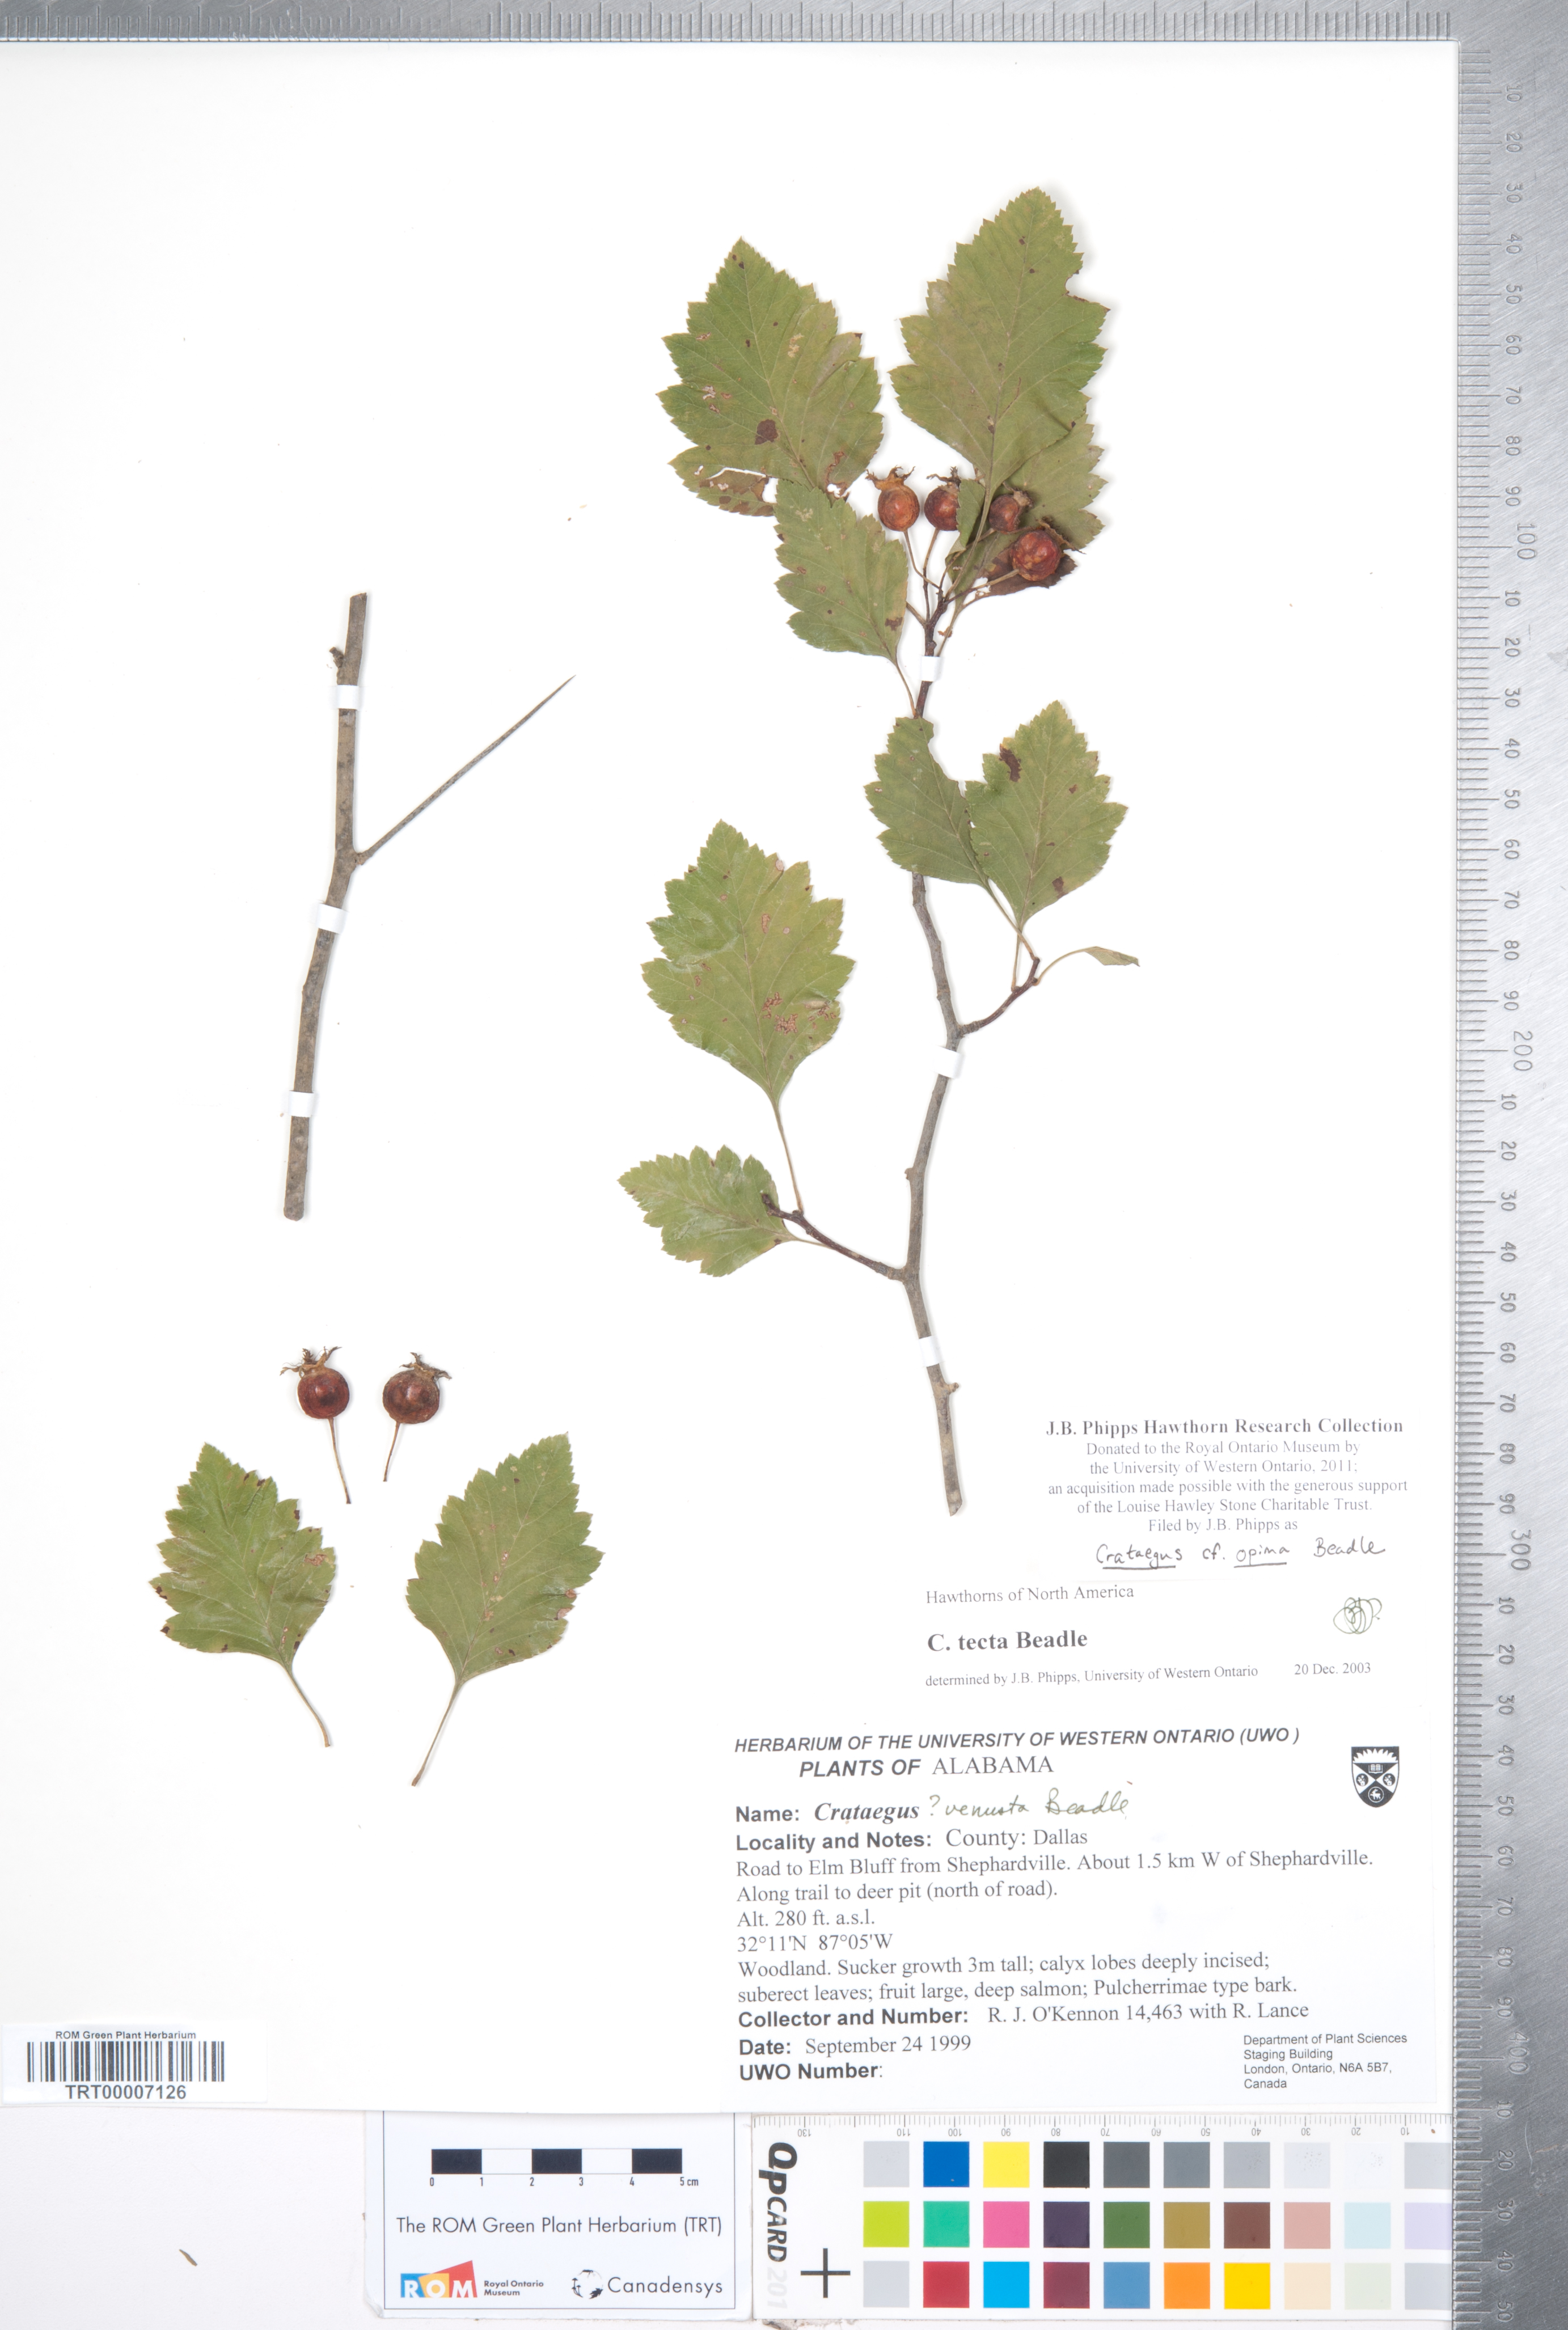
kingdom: Plantae
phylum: Tracheophyta
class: Magnoliopsida
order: Rosales
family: Rosaceae
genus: Crataegus
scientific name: Crataegus pulcherrima
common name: Beautiful hawthorn
